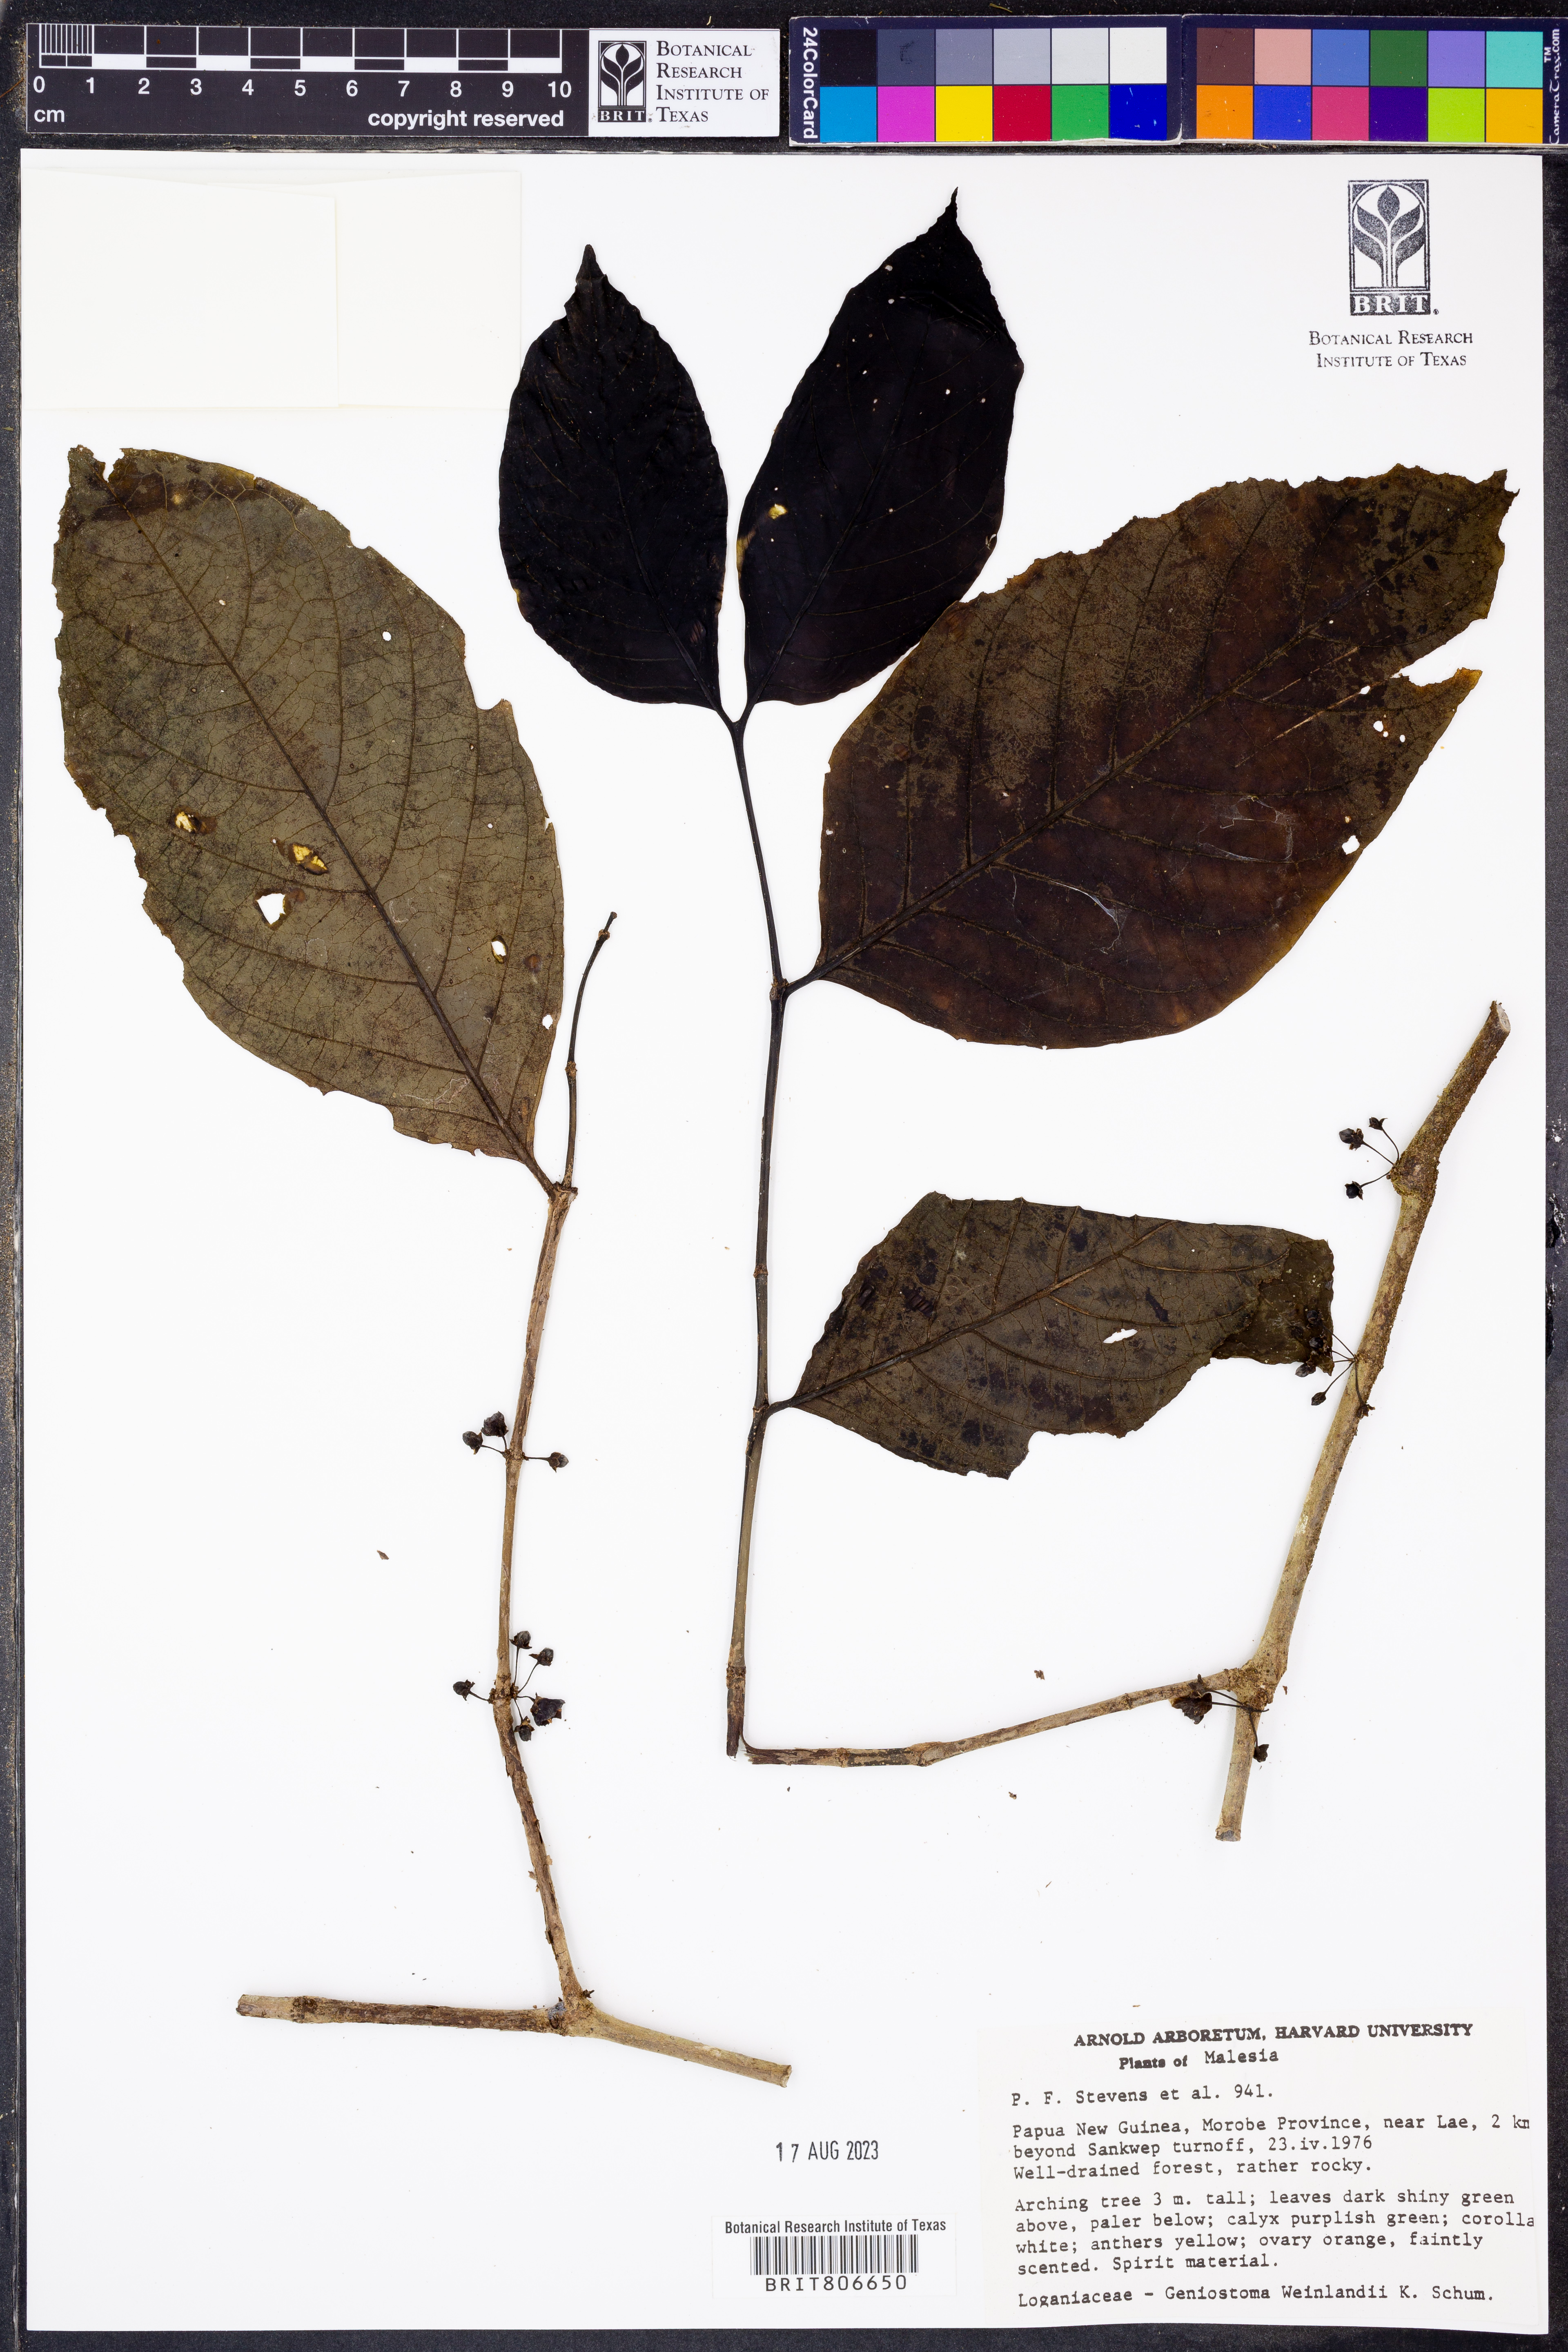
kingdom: Plantae
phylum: Tracheophyta
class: Magnoliopsida
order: Gentianales
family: Loganiaceae
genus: Geniostoma
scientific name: Geniostoma weinlandii
